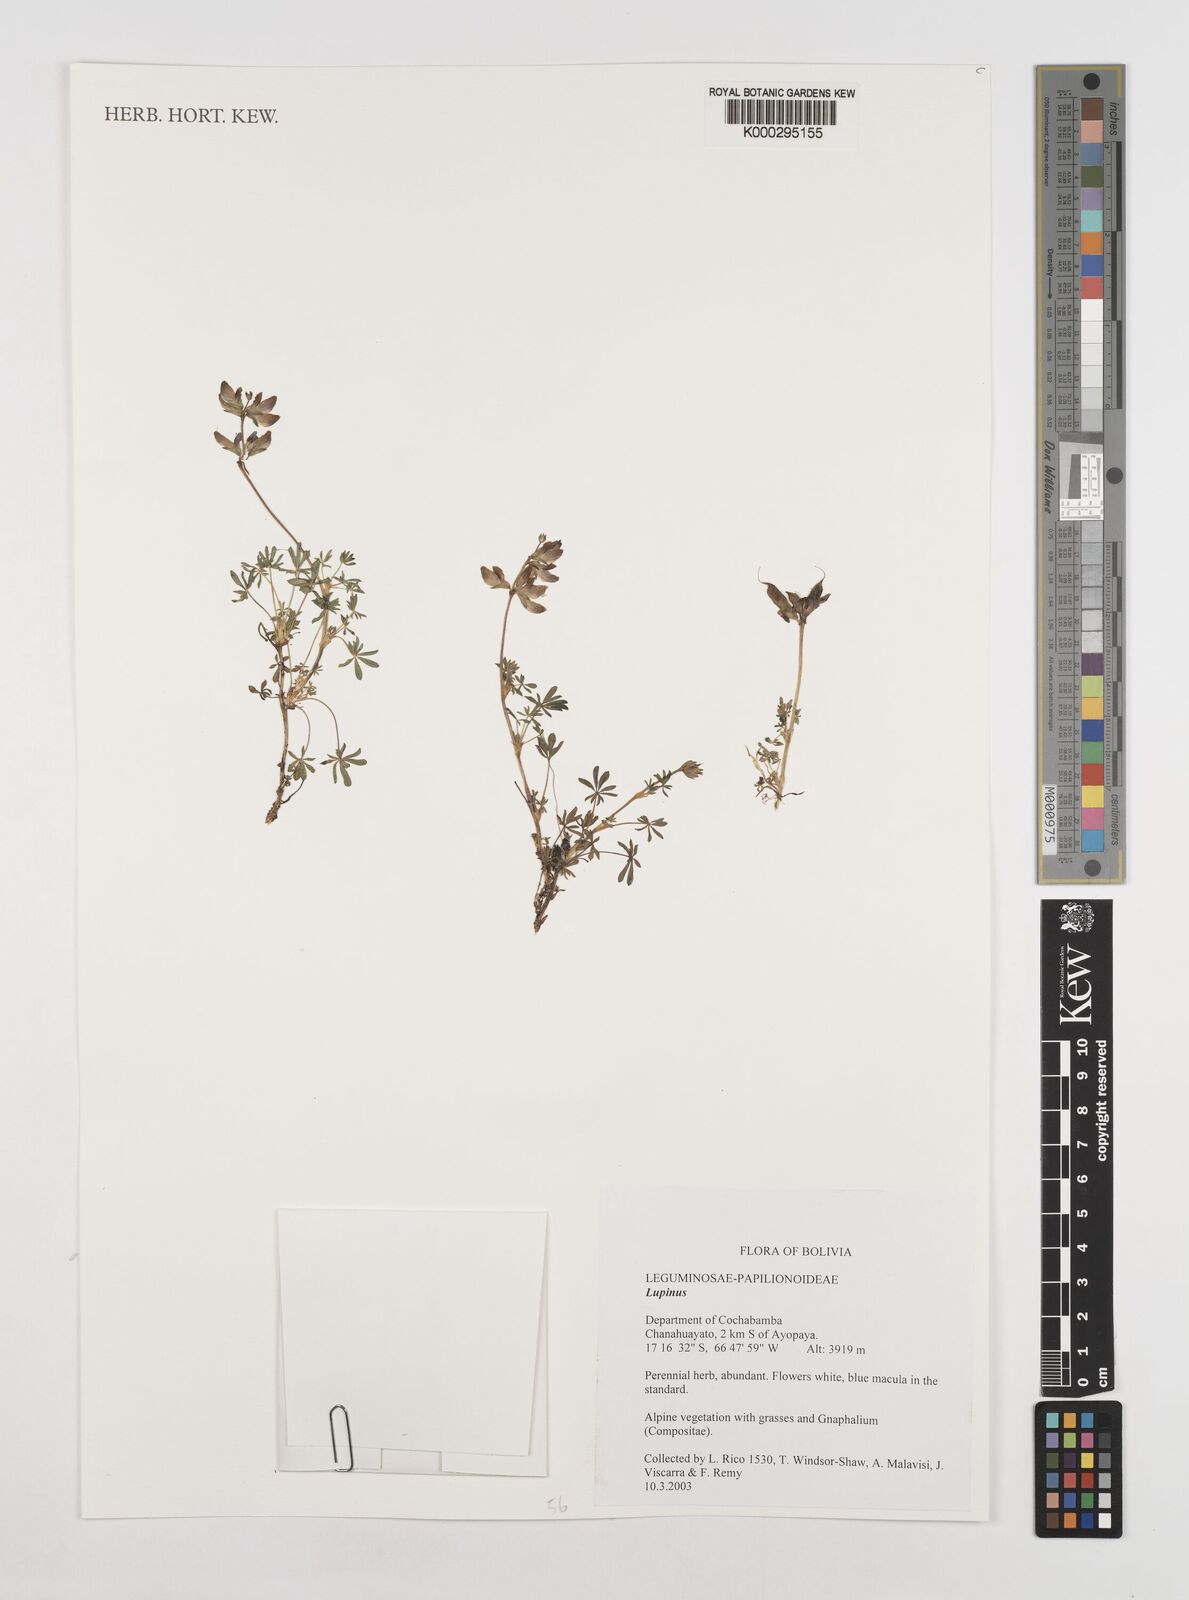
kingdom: Plantae
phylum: Tracheophyta
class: Magnoliopsida
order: Fabales
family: Fabaceae
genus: Lupinus
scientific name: Lupinus
